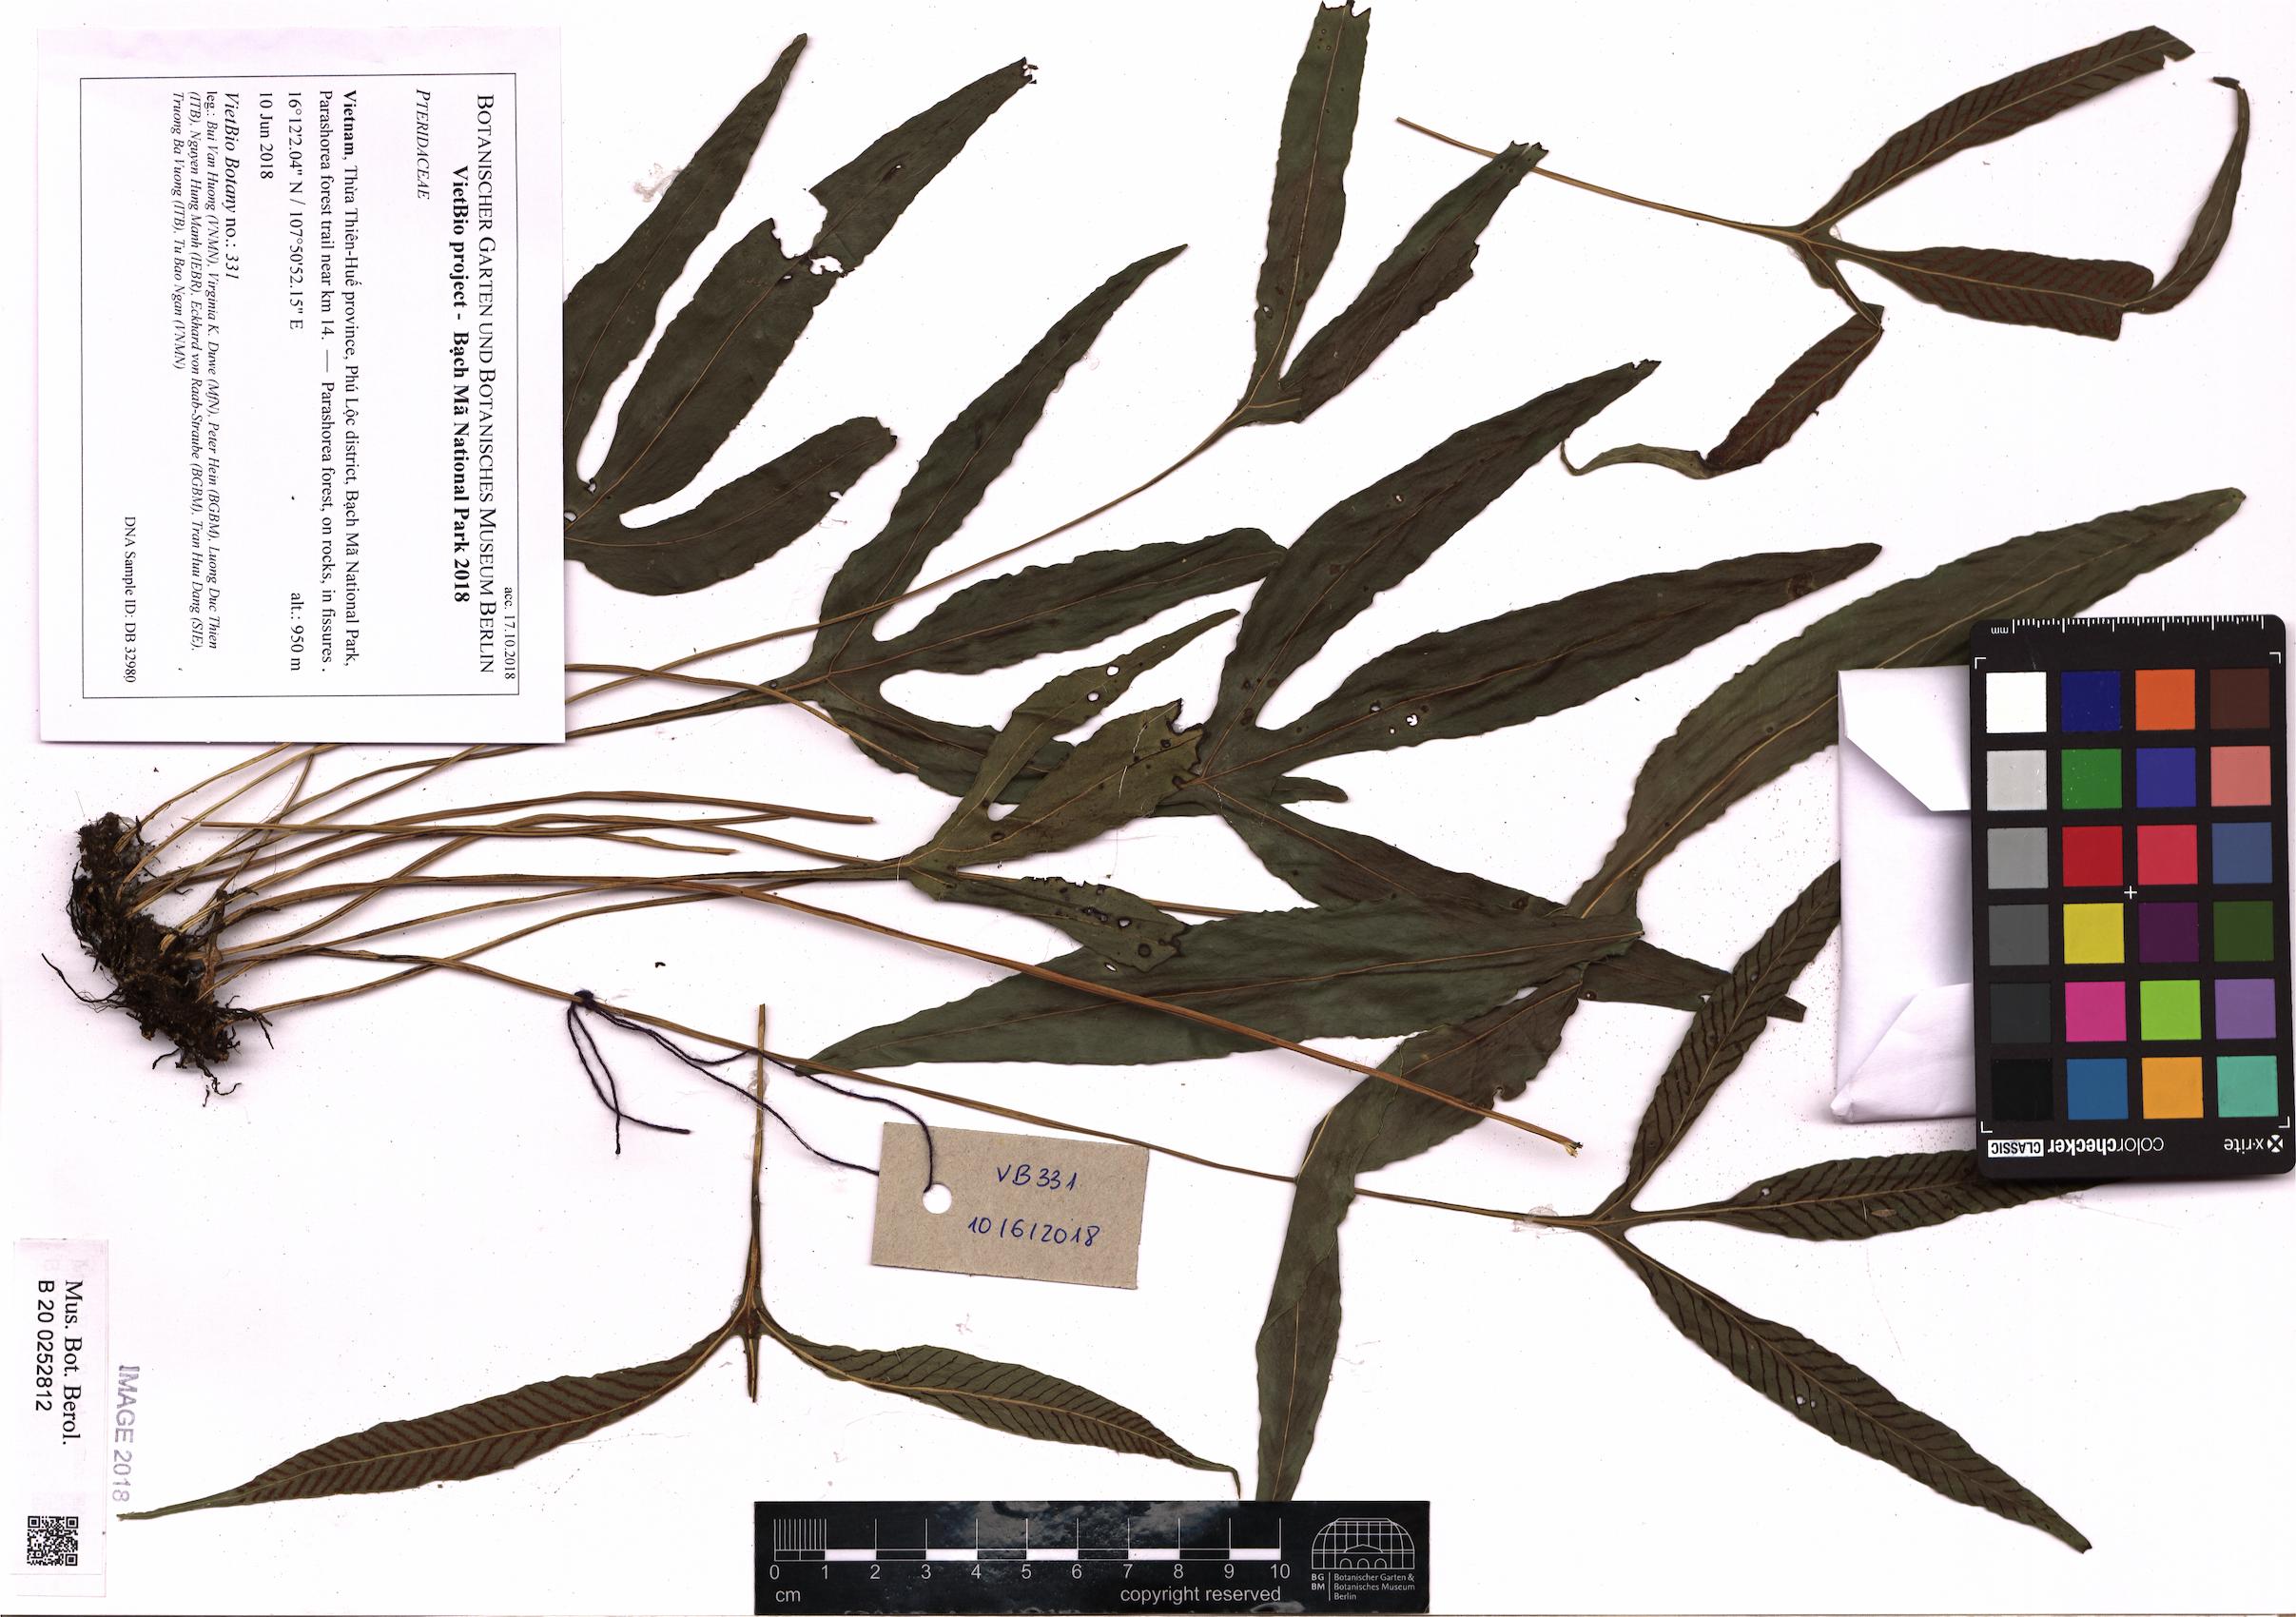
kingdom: Plantae
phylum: Tracheophyta
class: Polypodiopsida
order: Polypodiales
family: Pteridaceae
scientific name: Pteridaceae
